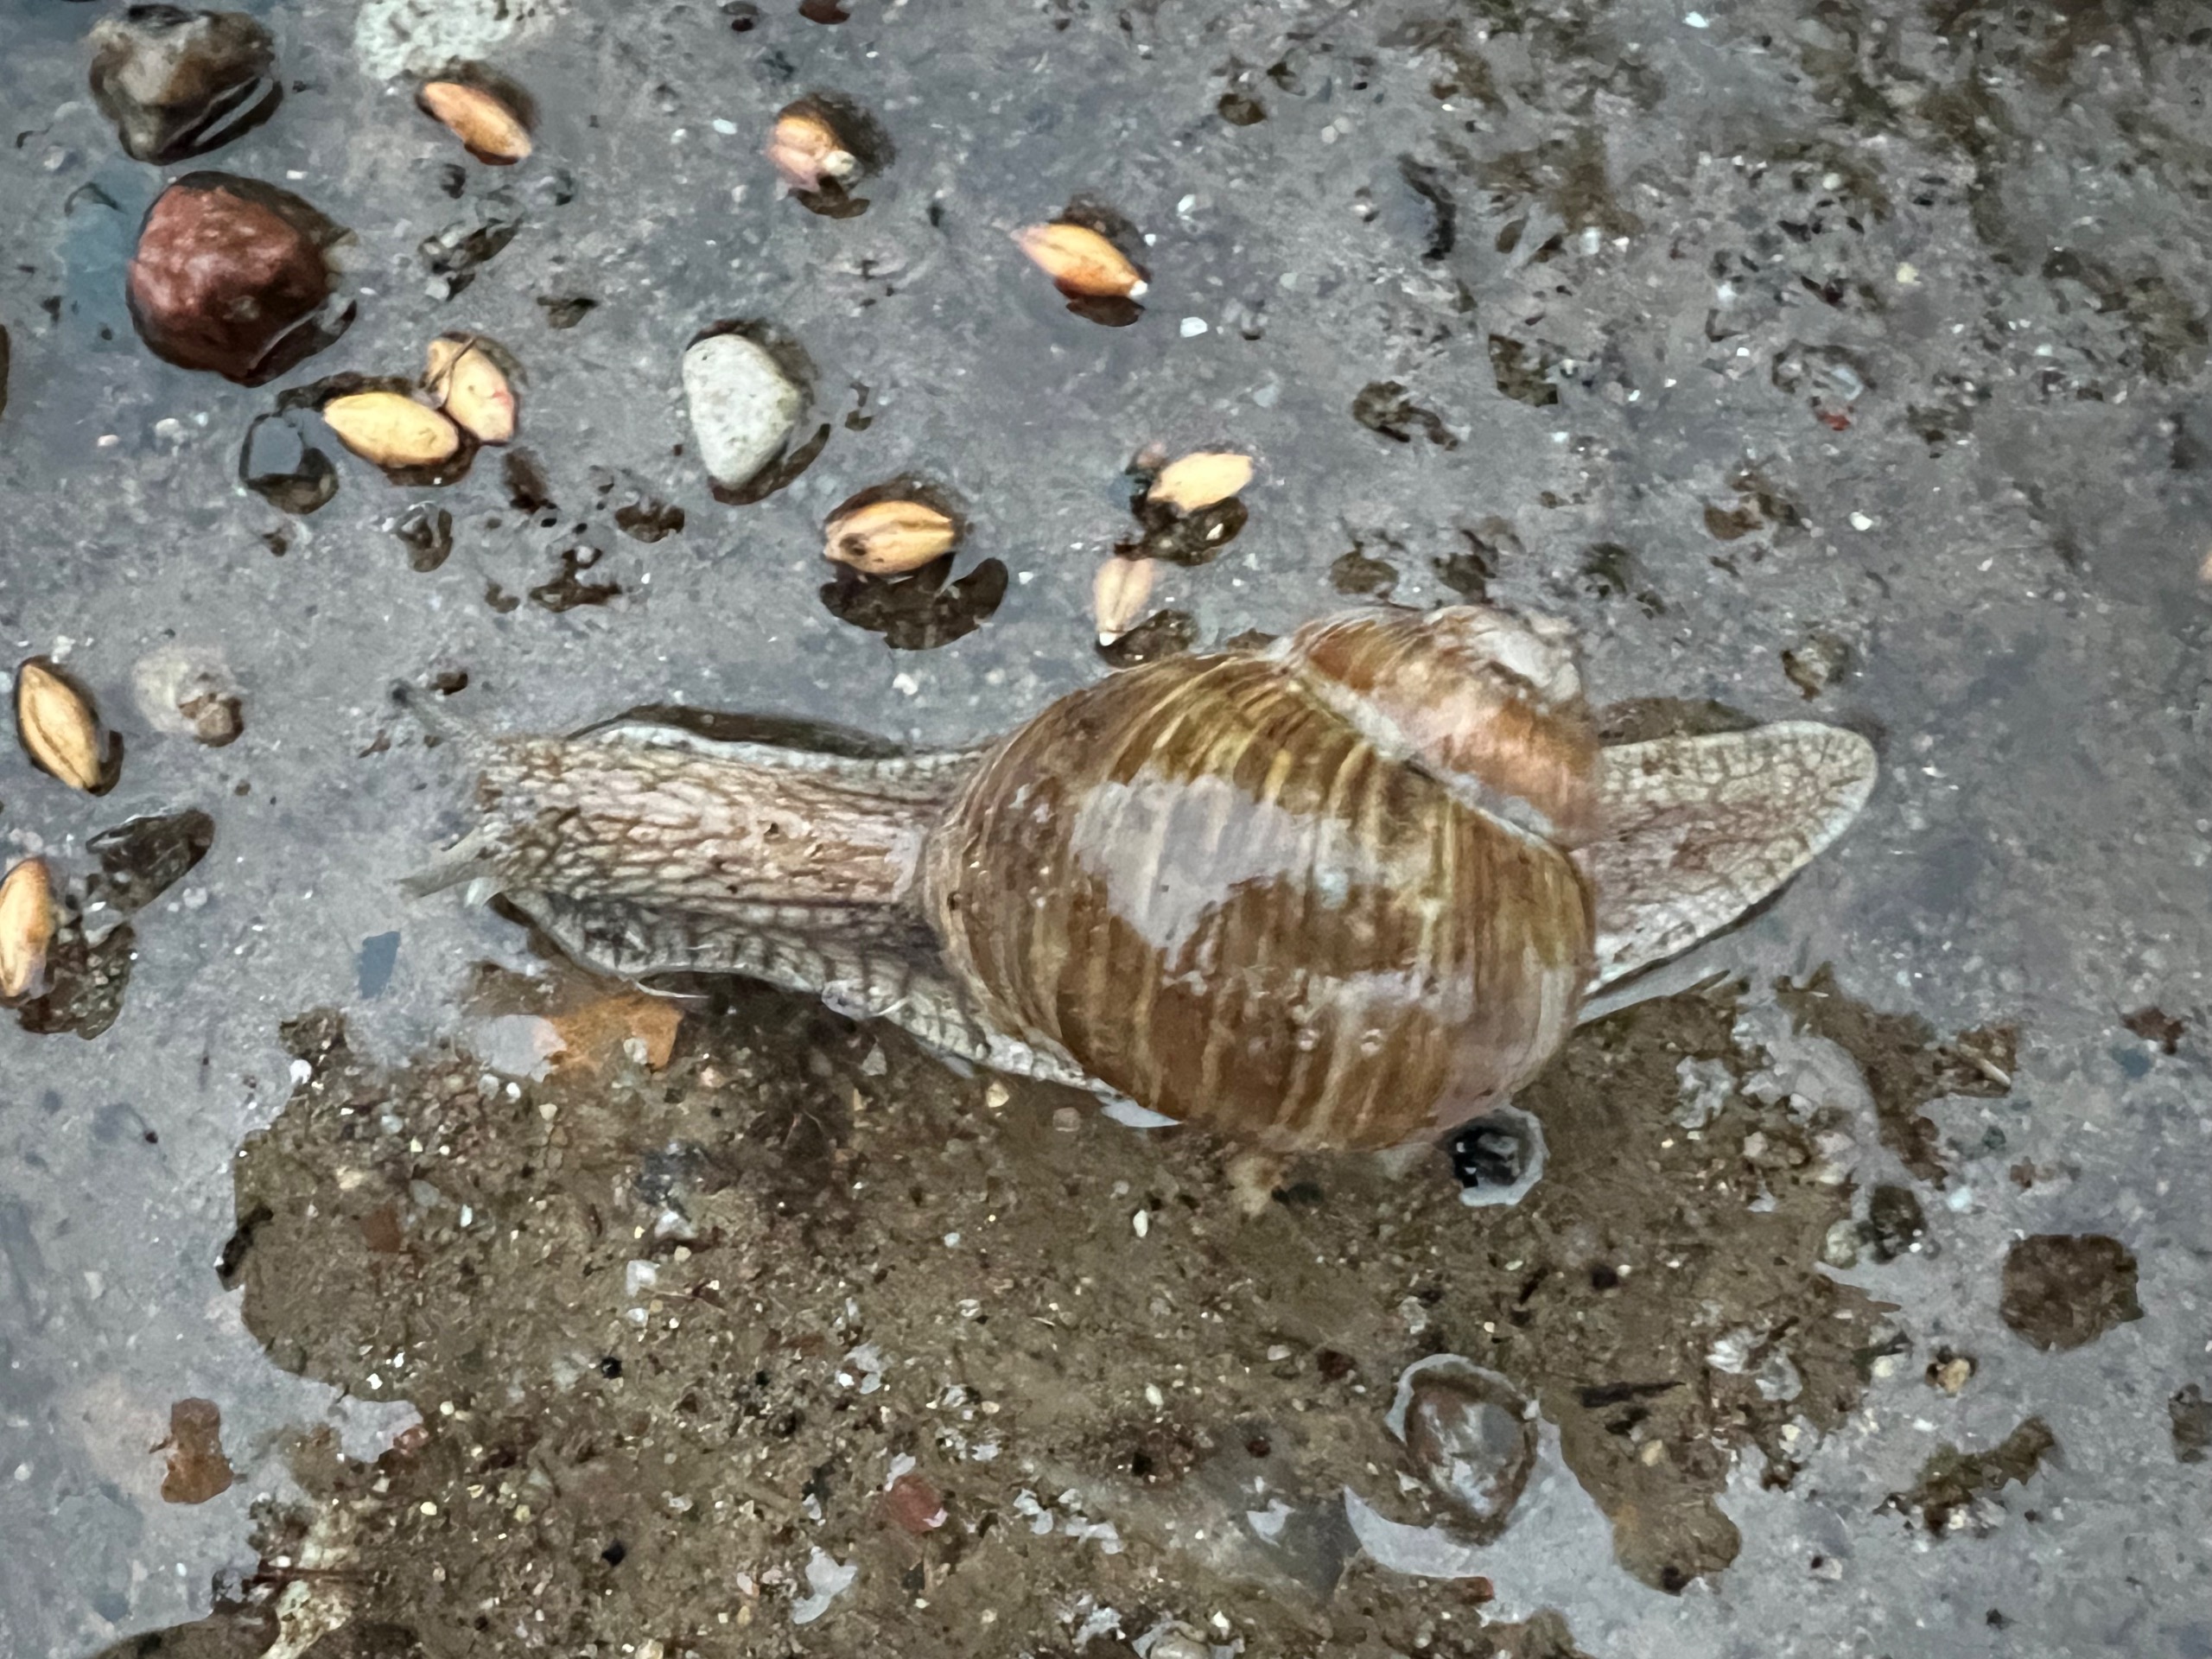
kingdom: Animalia
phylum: Mollusca
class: Gastropoda
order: Stylommatophora
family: Helicidae
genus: Helix
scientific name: Helix pomatia
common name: Vinbjergsnegl
